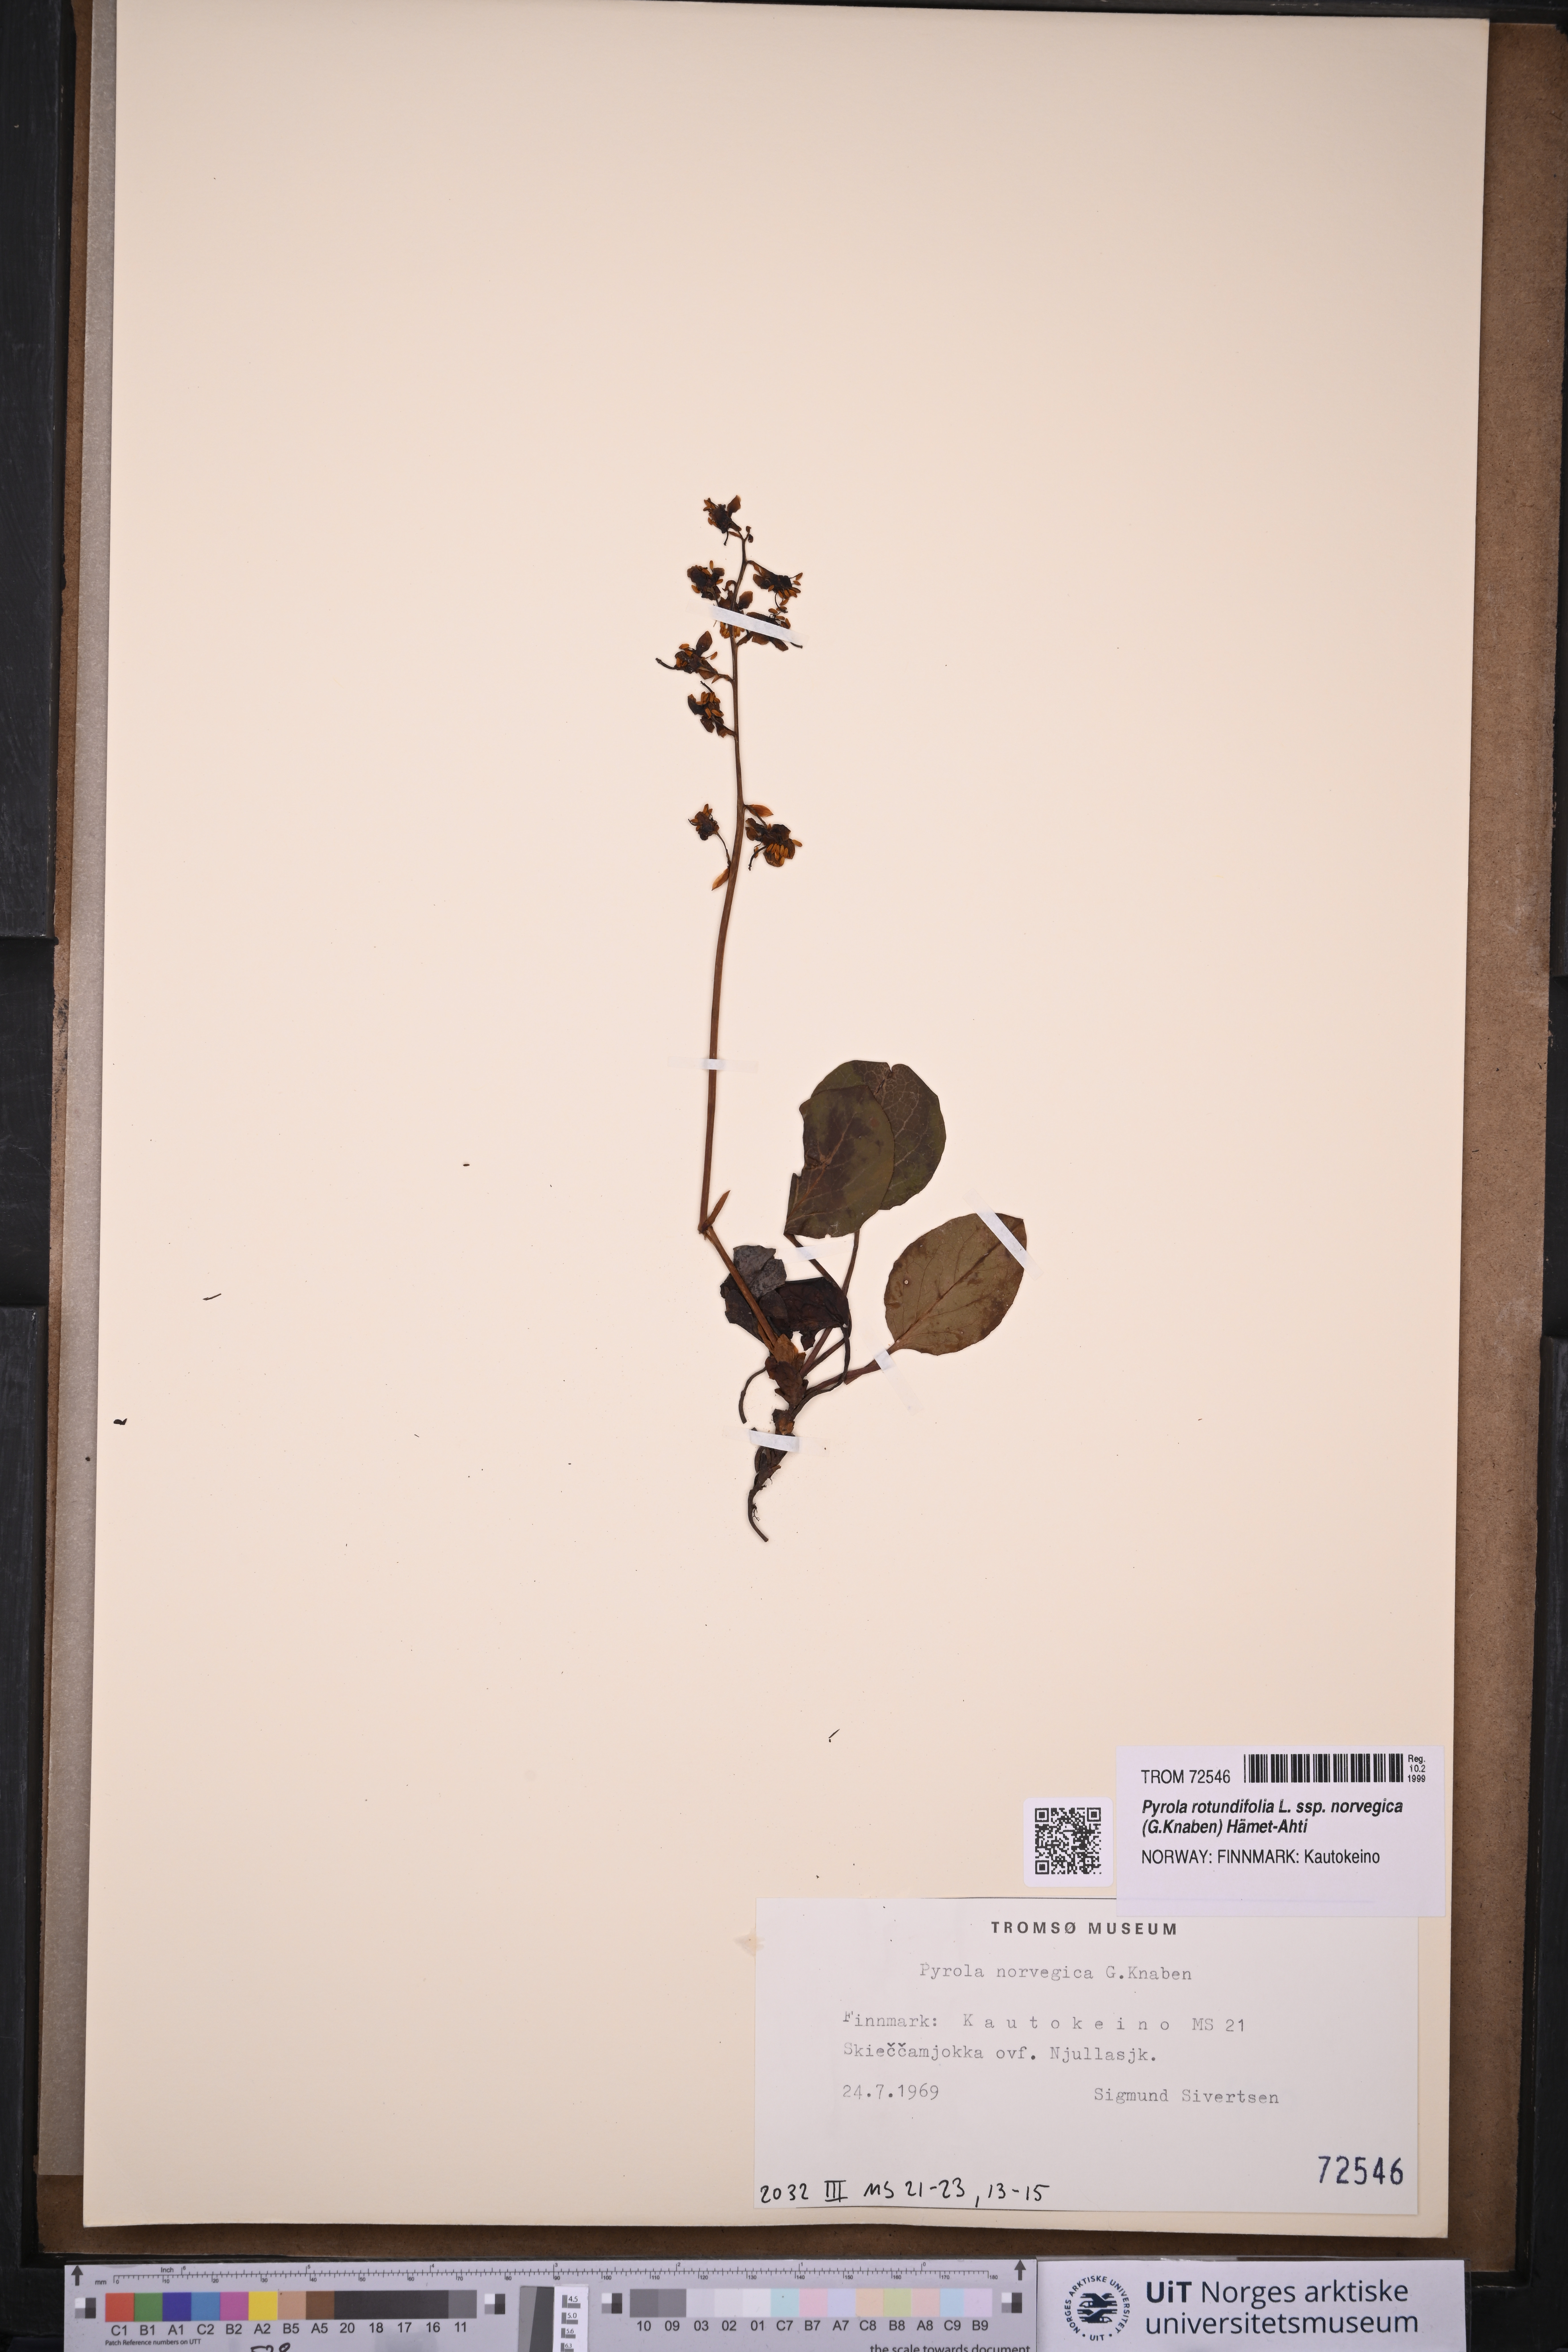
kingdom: Plantae
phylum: Tracheophyta
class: Magnoliopsida
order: Ericales
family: Ericaceae
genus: Pyrola
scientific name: Pyrola rotundifolia
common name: Round-leaved wintergreen
